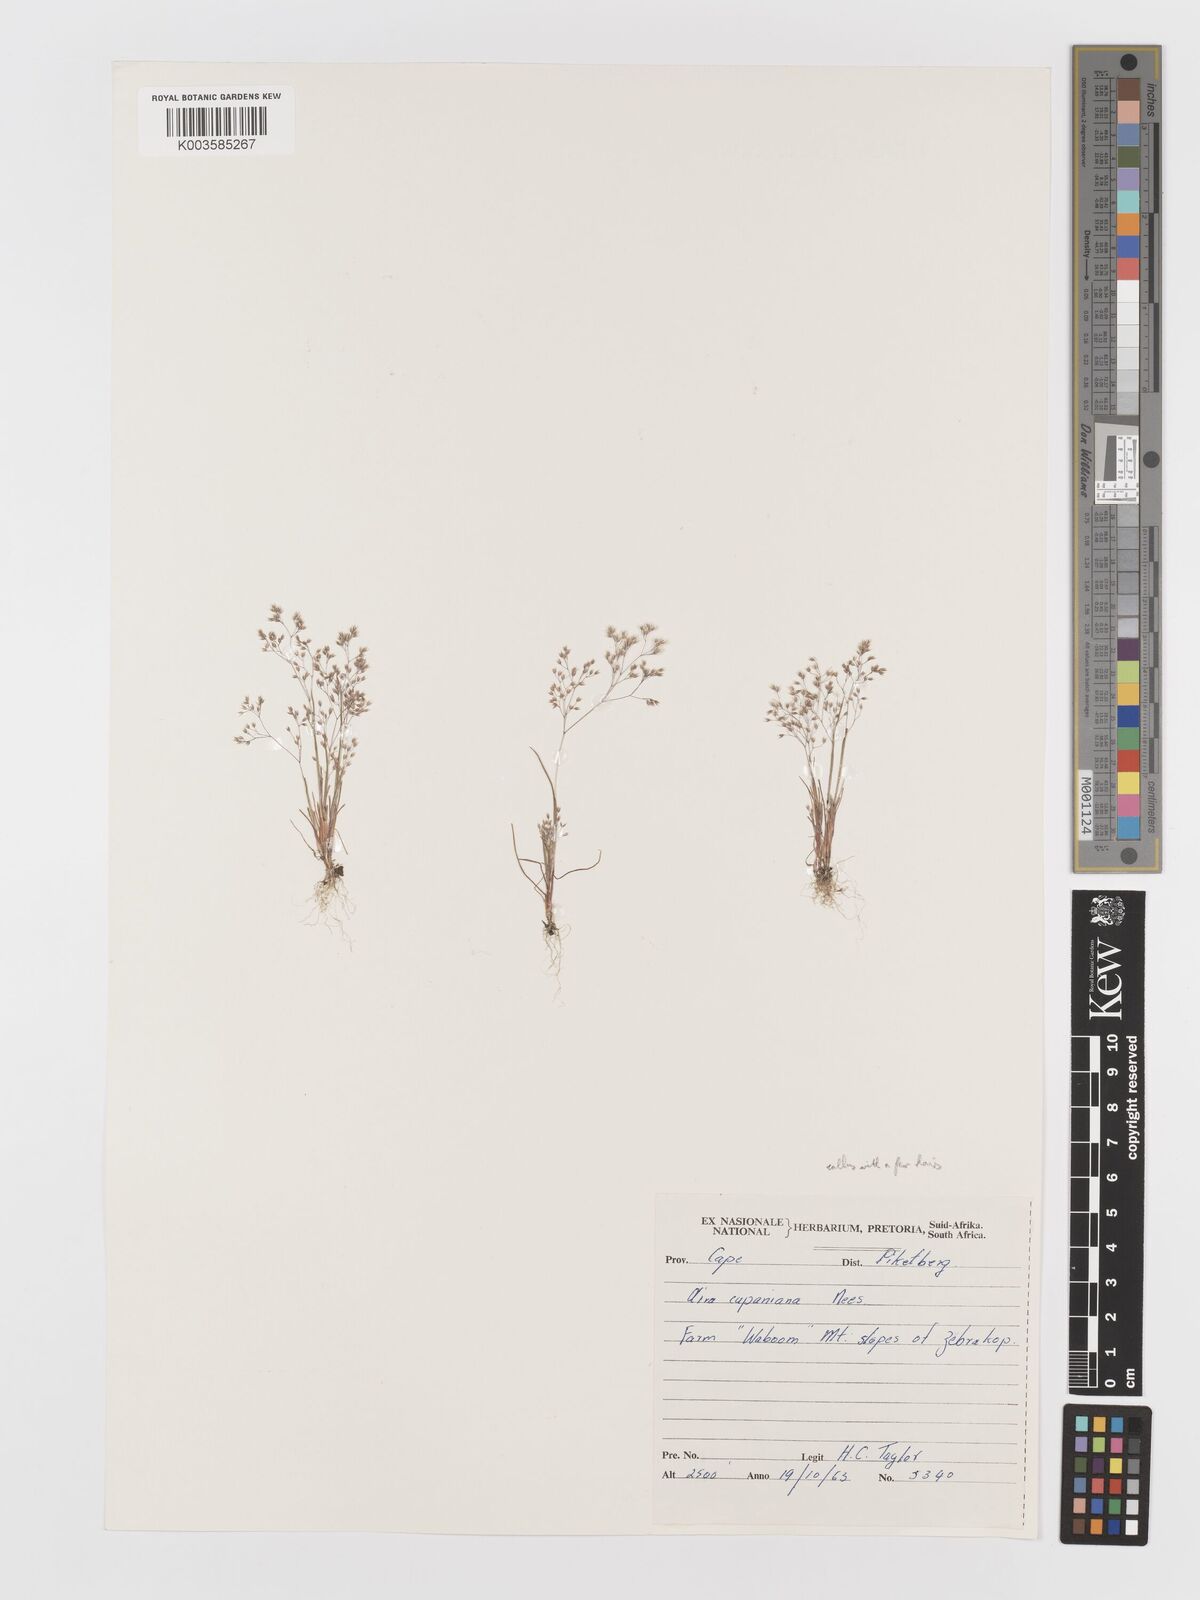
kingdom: Plantae
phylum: Tracheophyta
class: Liliopsida
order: Poales
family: Poaceae
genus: Aira
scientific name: Aira cupaniana
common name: Silver hairgrass
